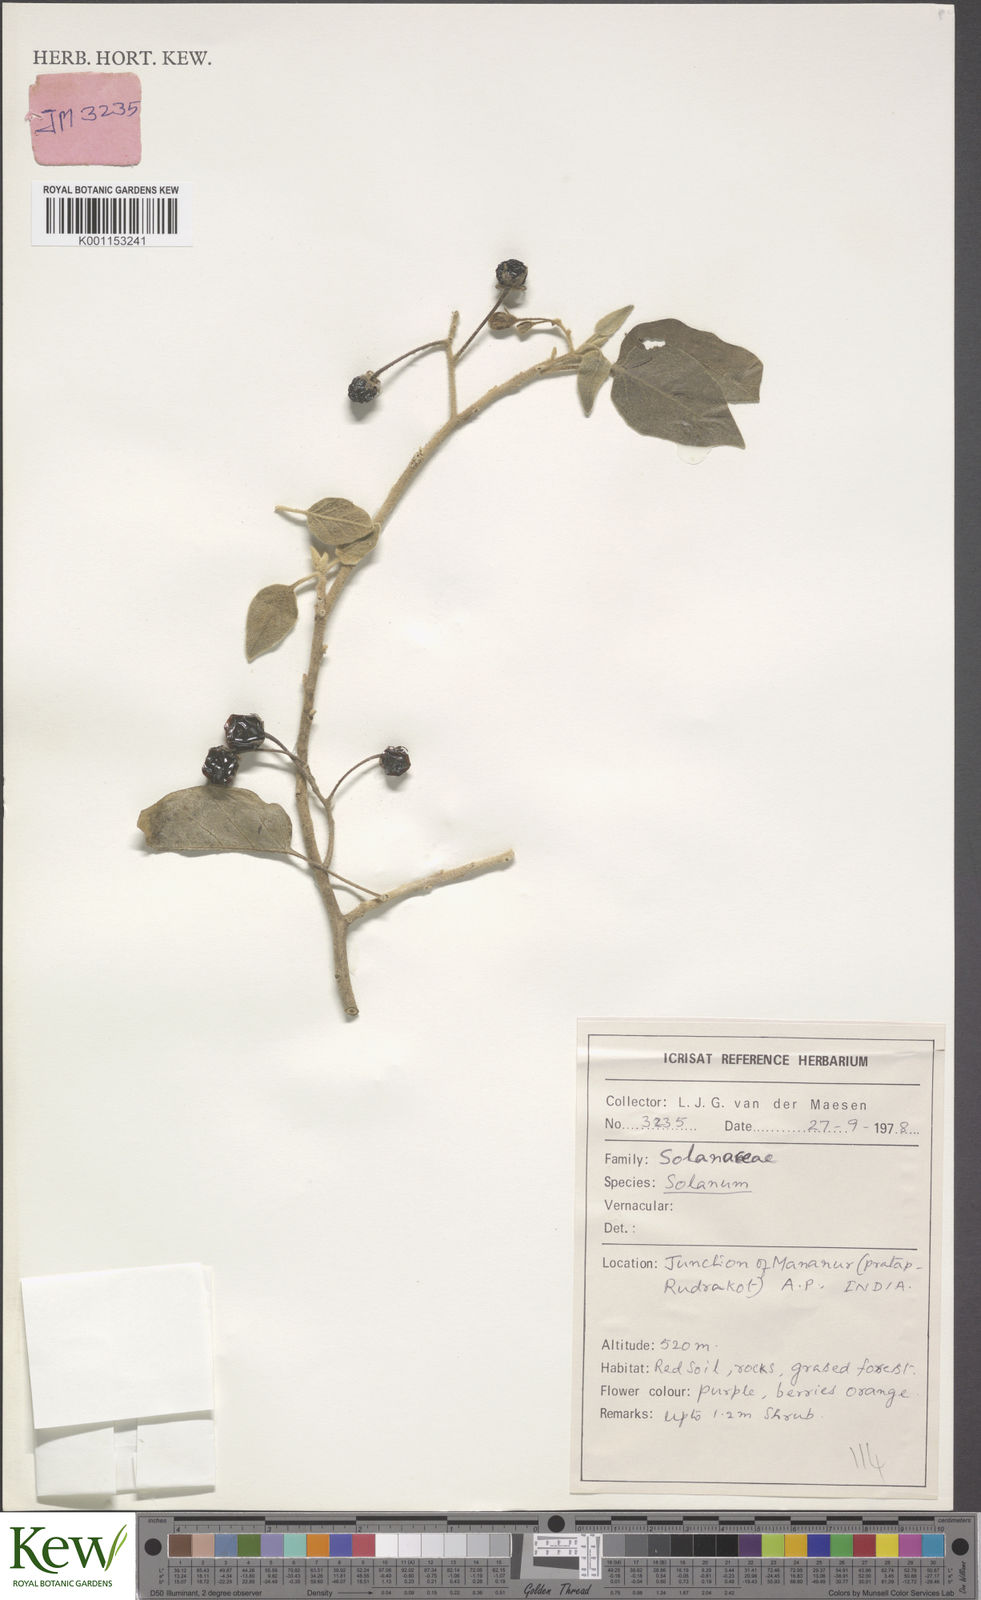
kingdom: Plantae
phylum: Tracheophyta
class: Magnoliopsida
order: Solanales
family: Solanaceae
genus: Solanum
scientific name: Solanum
